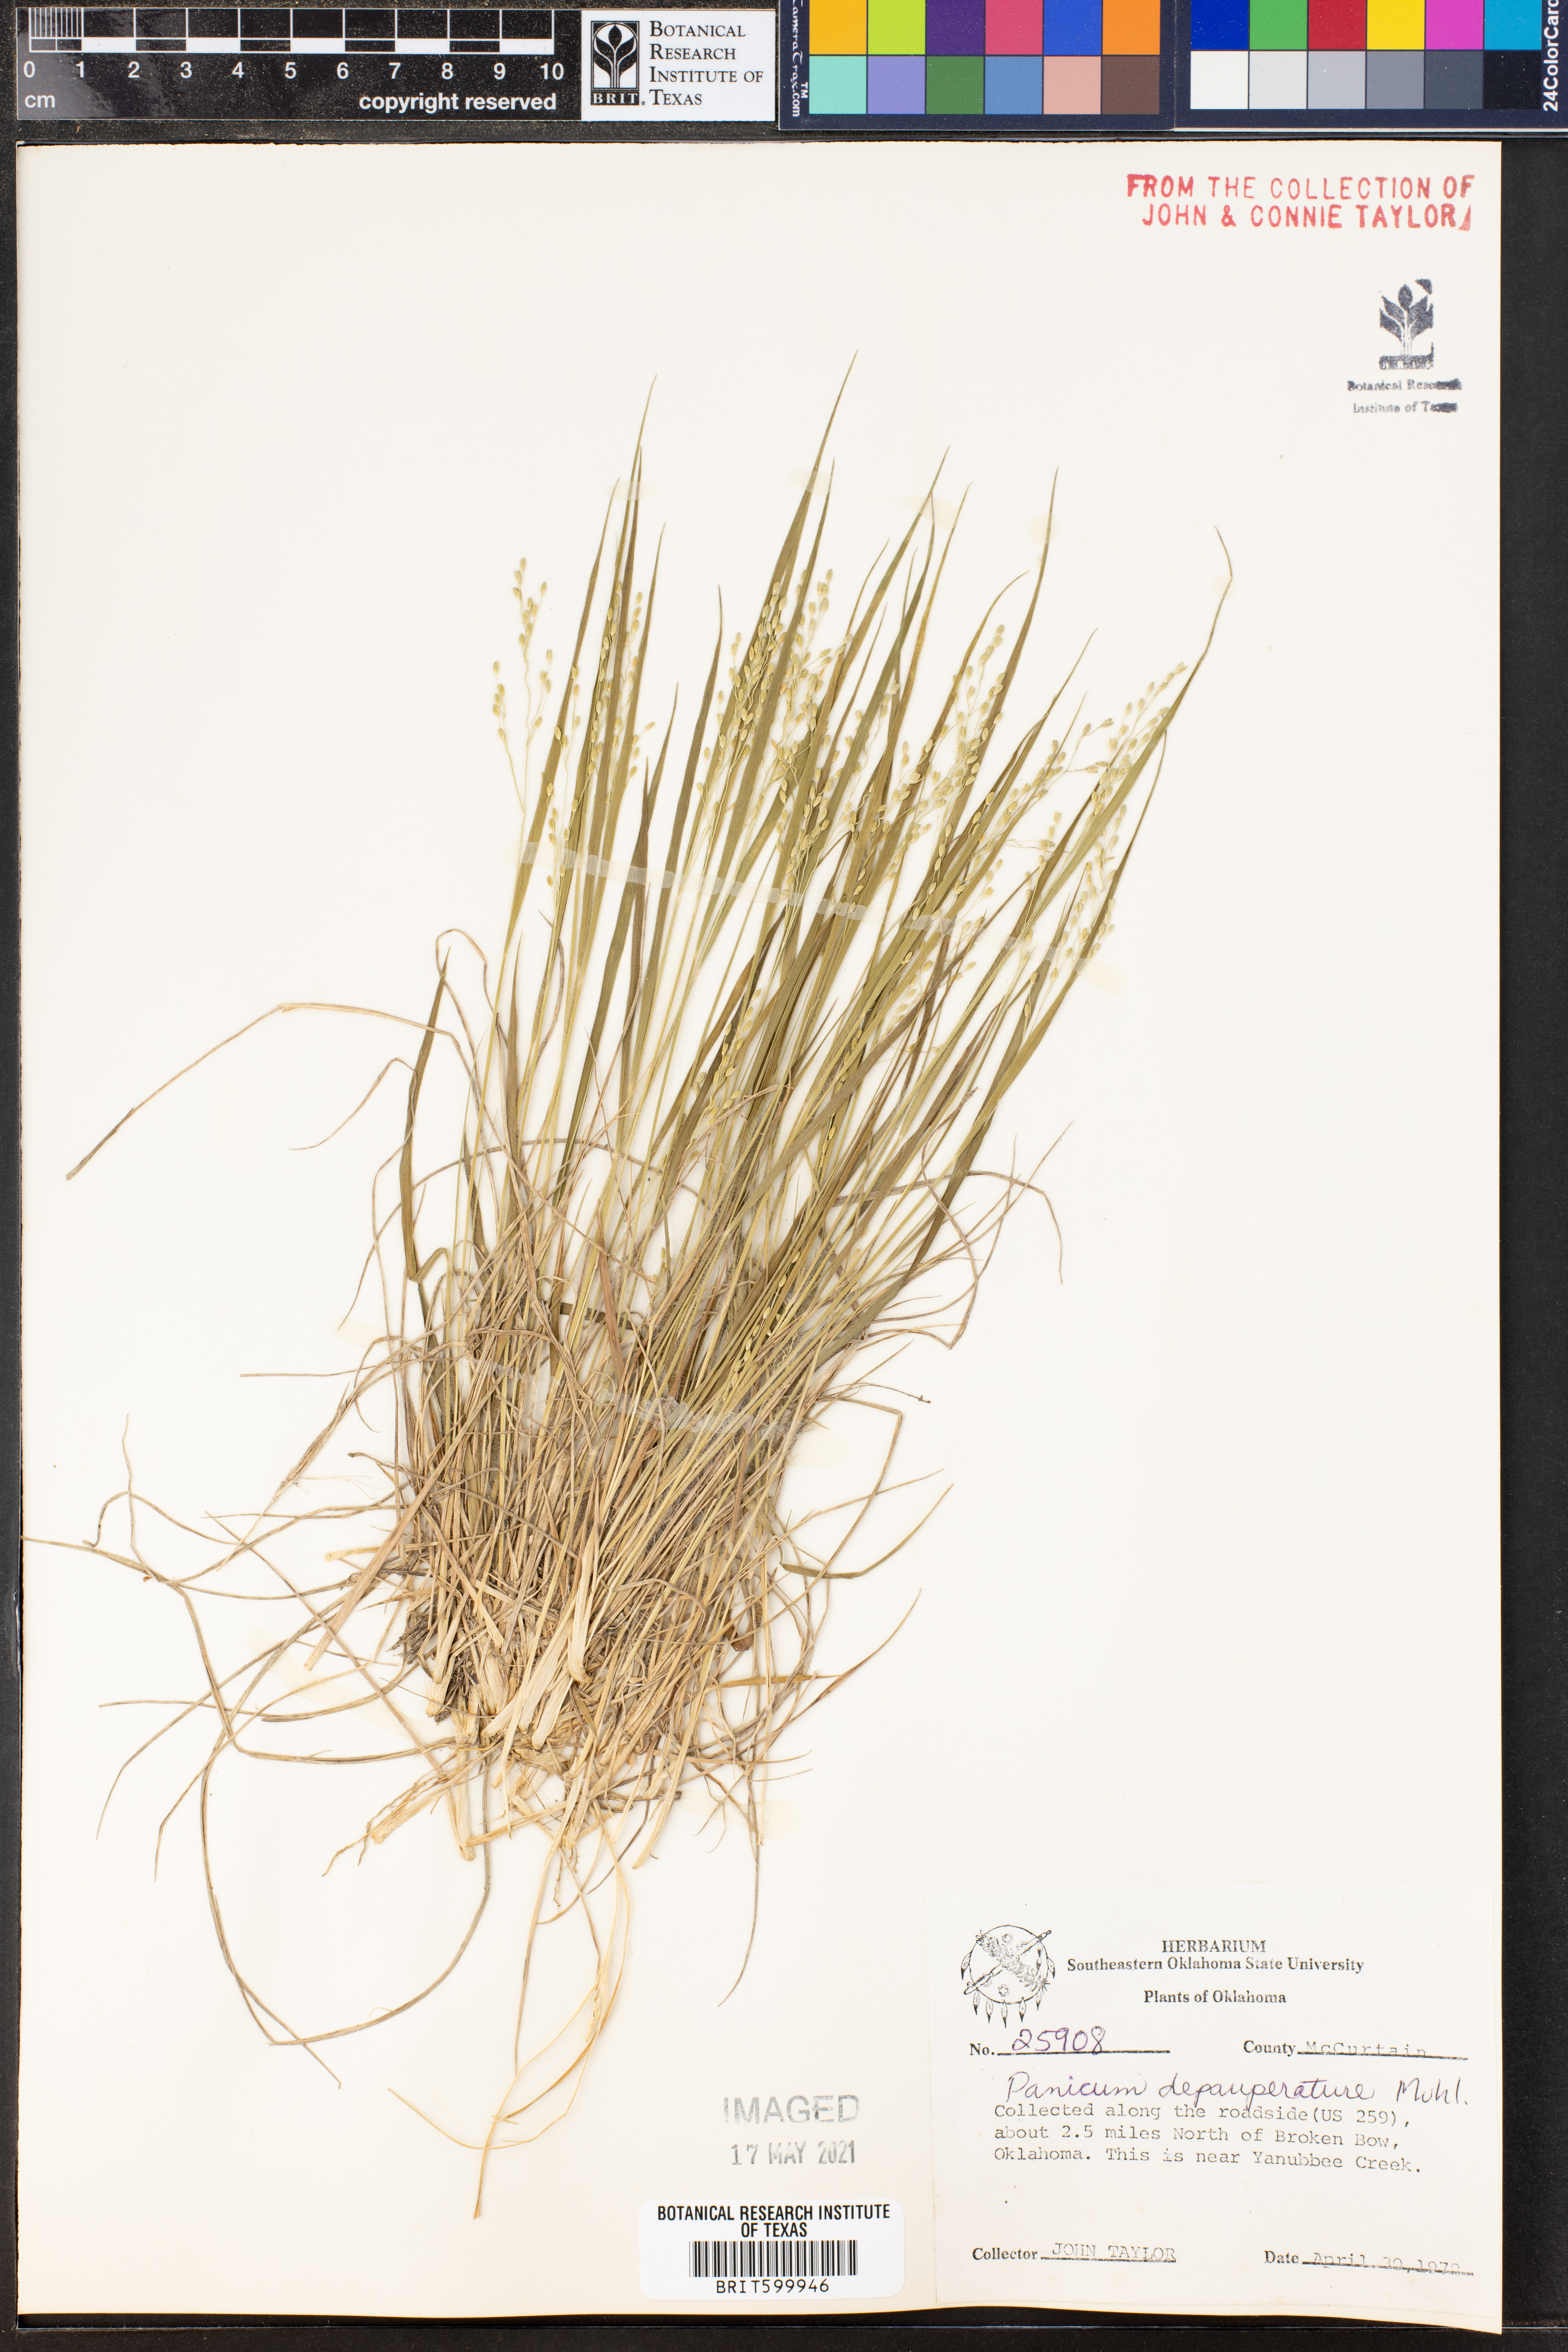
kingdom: Plantae
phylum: Tracheophyta
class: Liliopsida
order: Poales
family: Poaceae
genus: Dichanthelium
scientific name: Dichanthelium depauperatum
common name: Depauperate panicgrass
